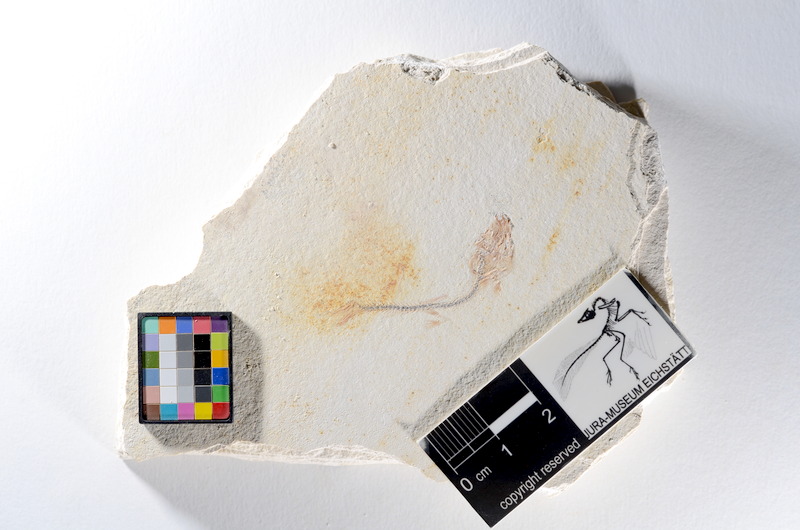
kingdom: Animalia
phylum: Chordata
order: Salmoniformes
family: Orthogonikleithridae
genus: Orthogonikleithrus
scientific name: Orthogonikleithrus hoelli
